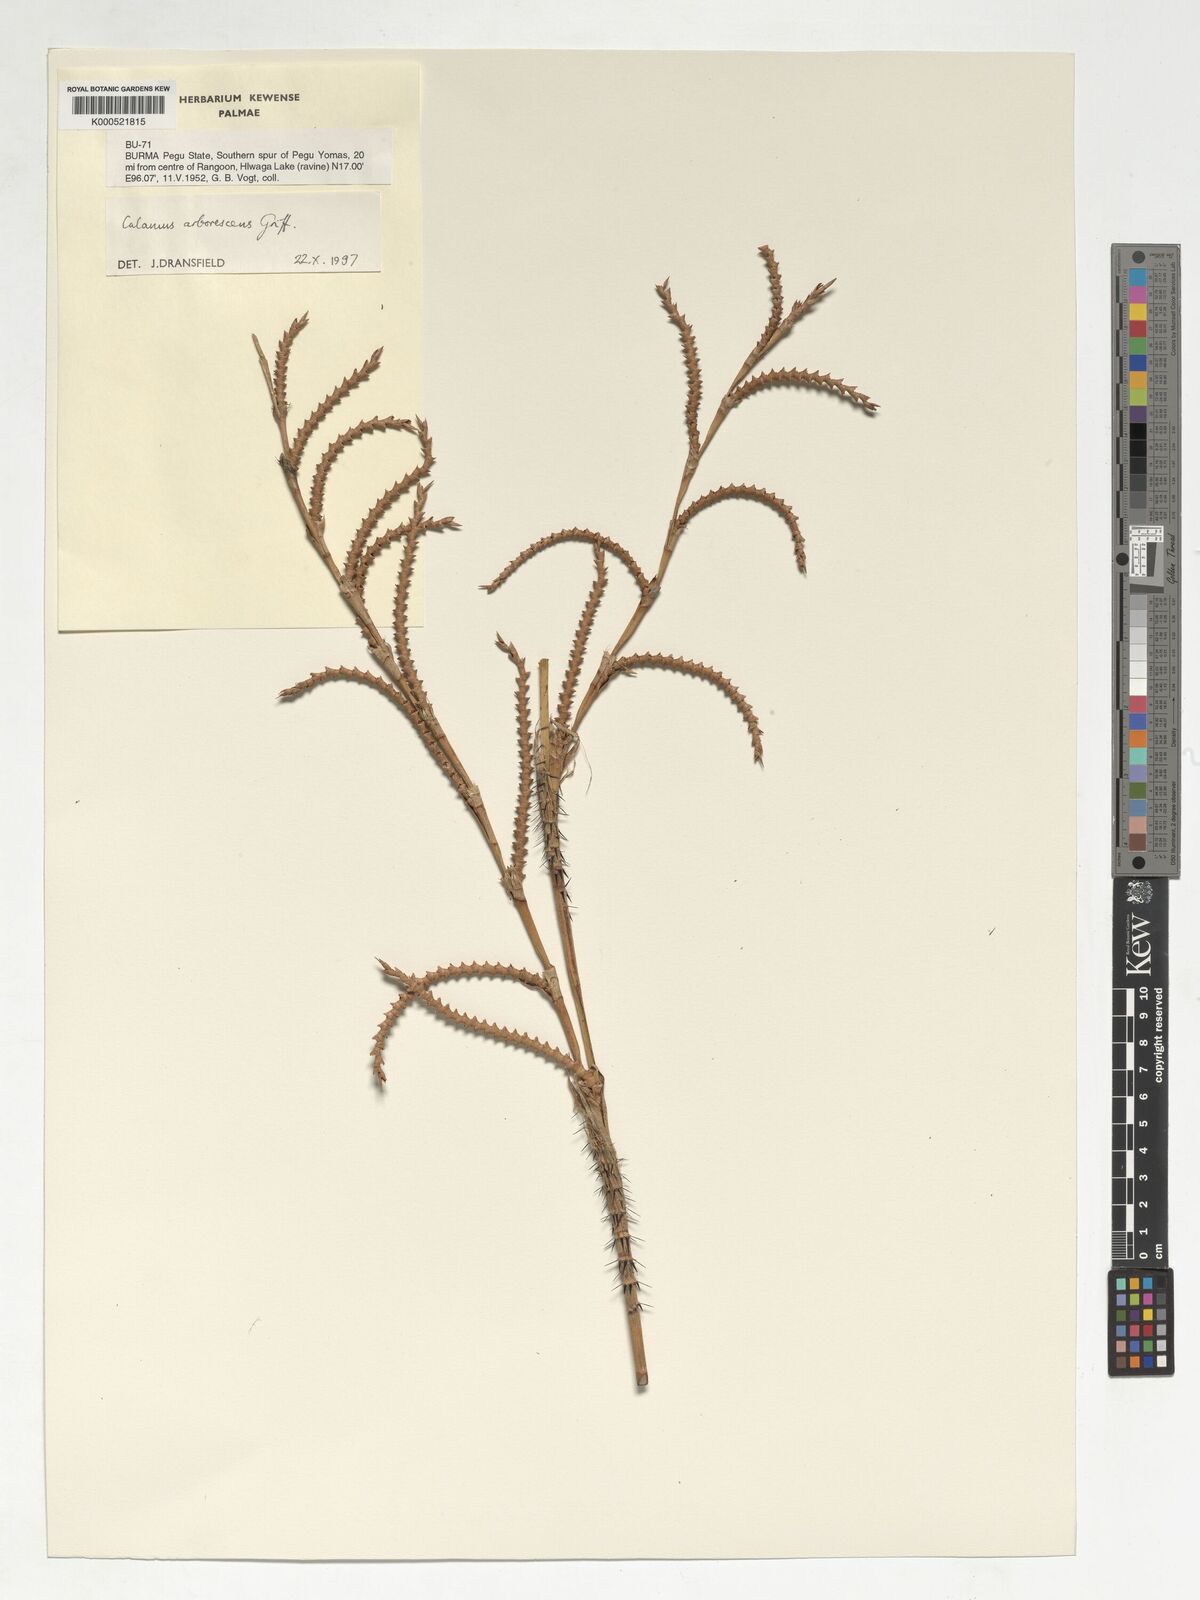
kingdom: Plantae
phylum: Tracheophyta
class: Liliopsida
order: Arecales
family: Arecaceae
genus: Calamus
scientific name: Calamus arborescens
